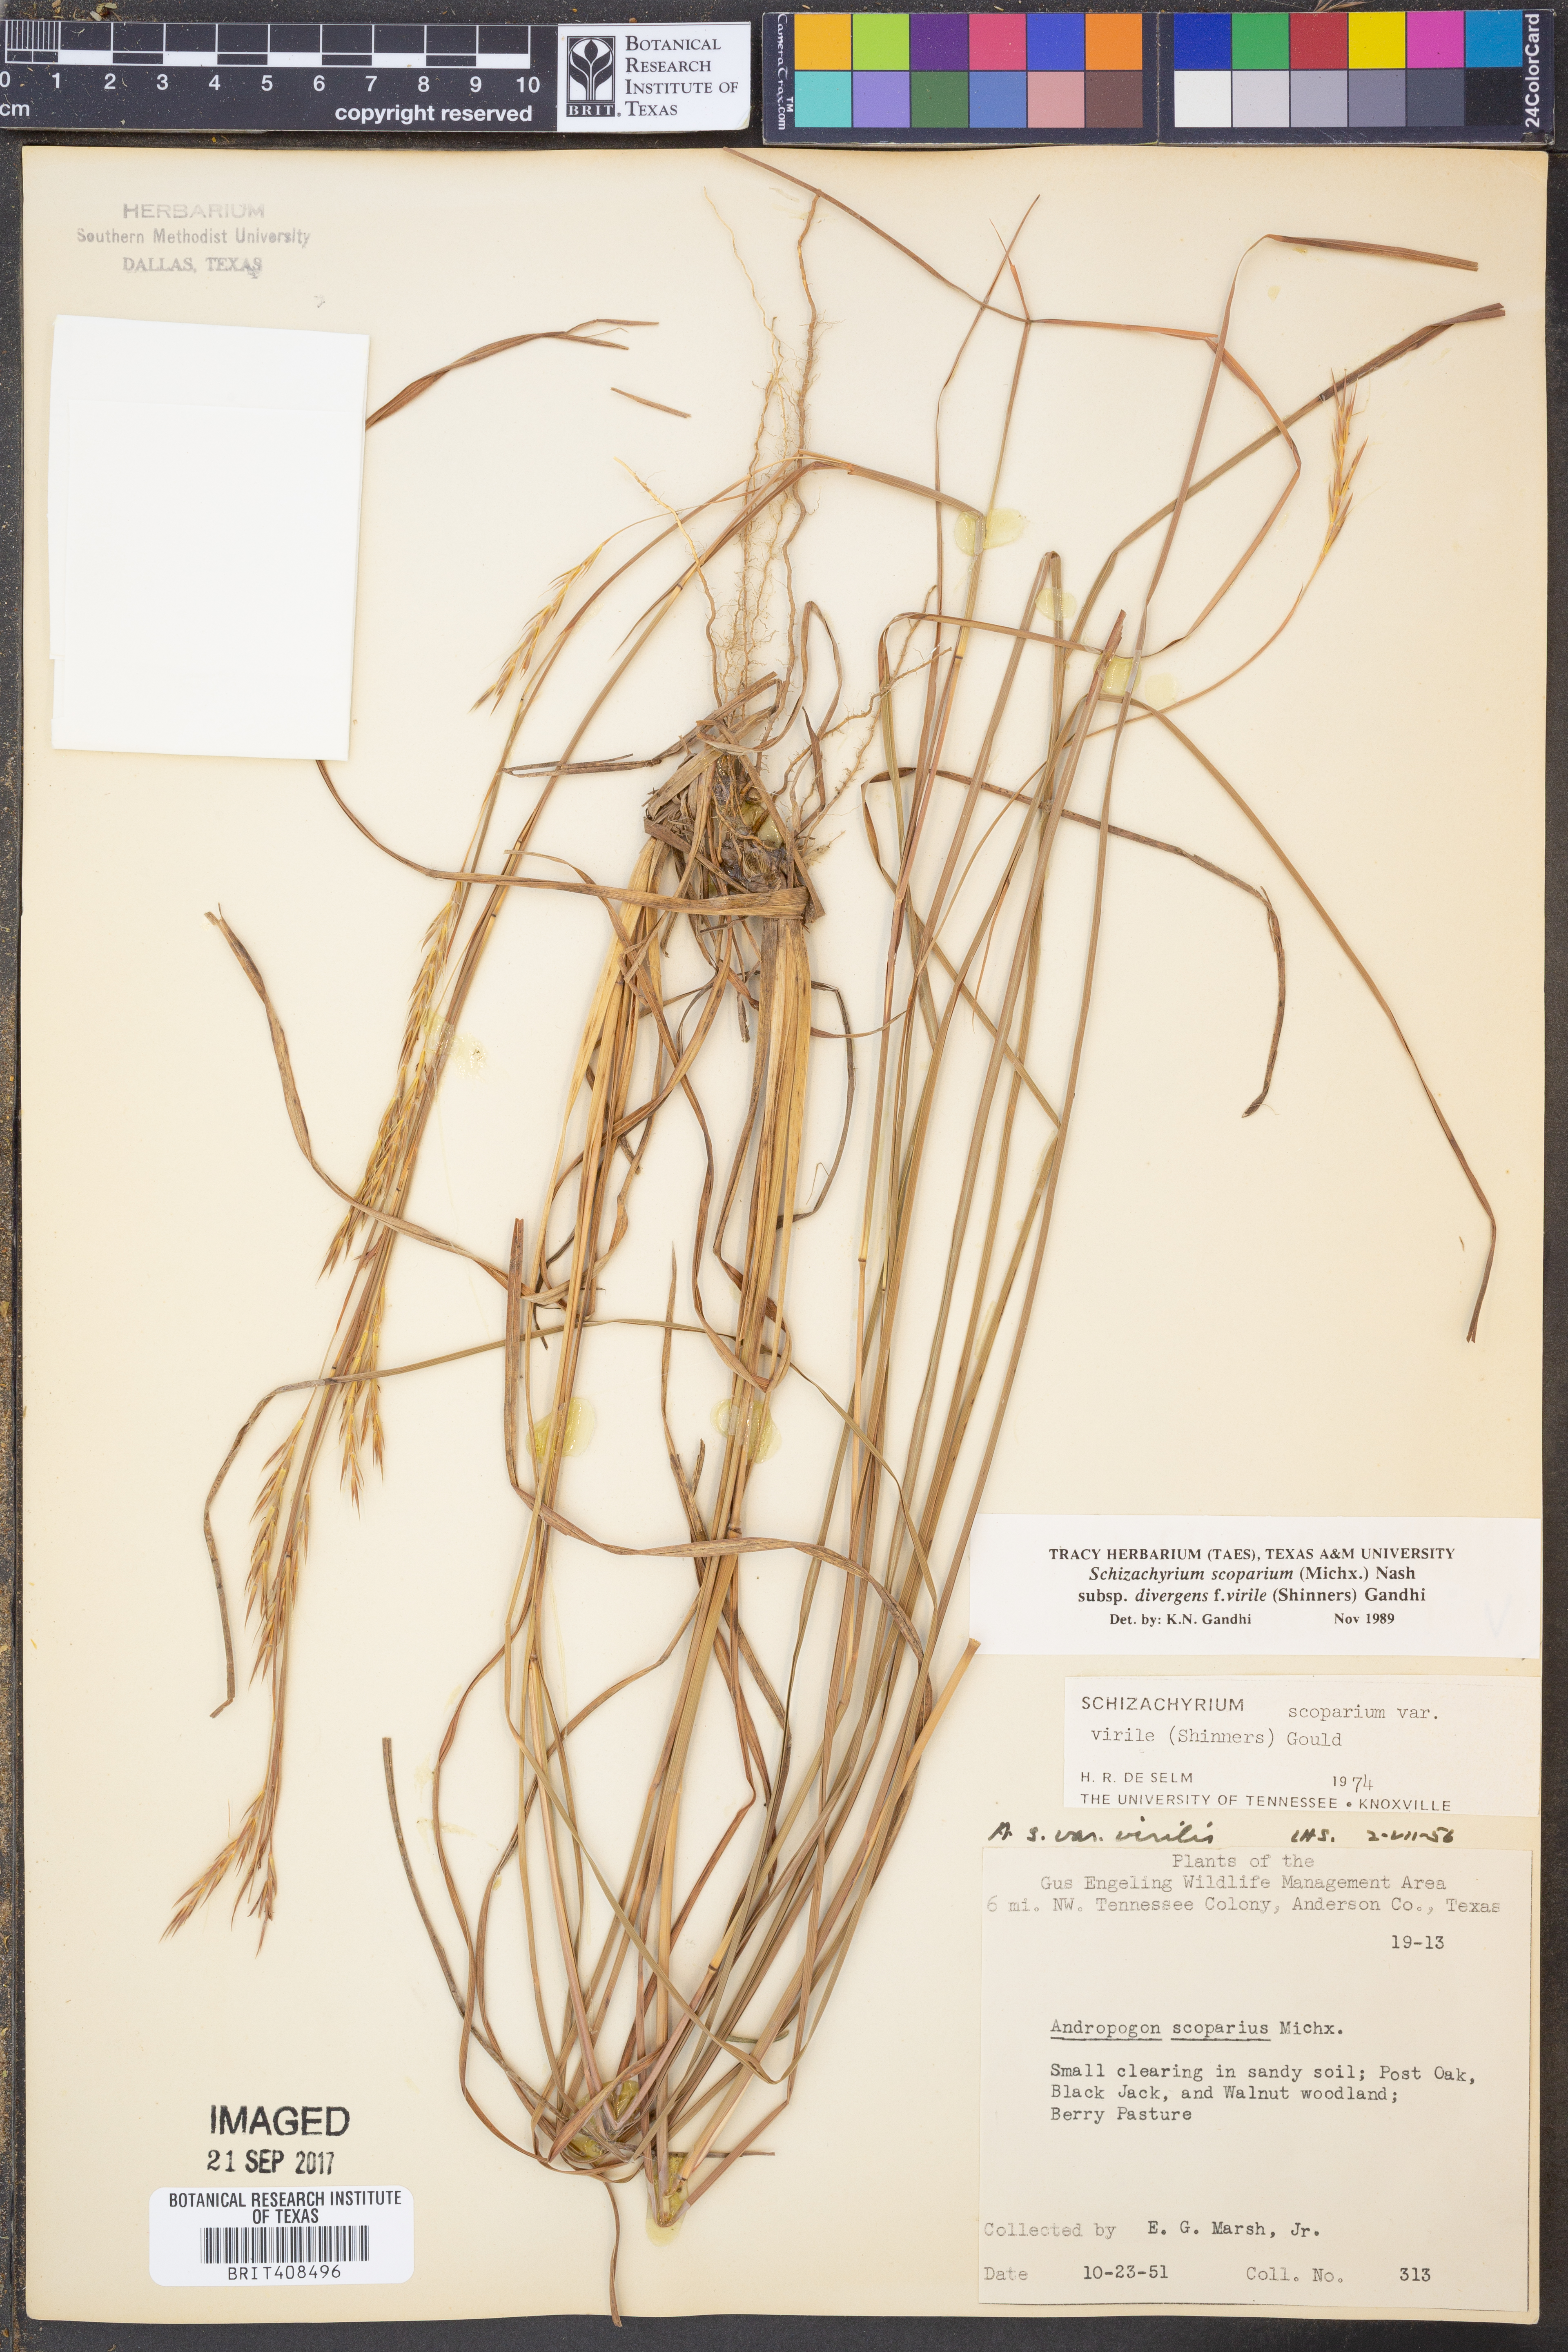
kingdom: Plantae
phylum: Tracheophyta
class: Liliopsida
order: Poales
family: Poaceae
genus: Schizachyrium
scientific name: Schizachyrium scoparium
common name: Little bluestem
